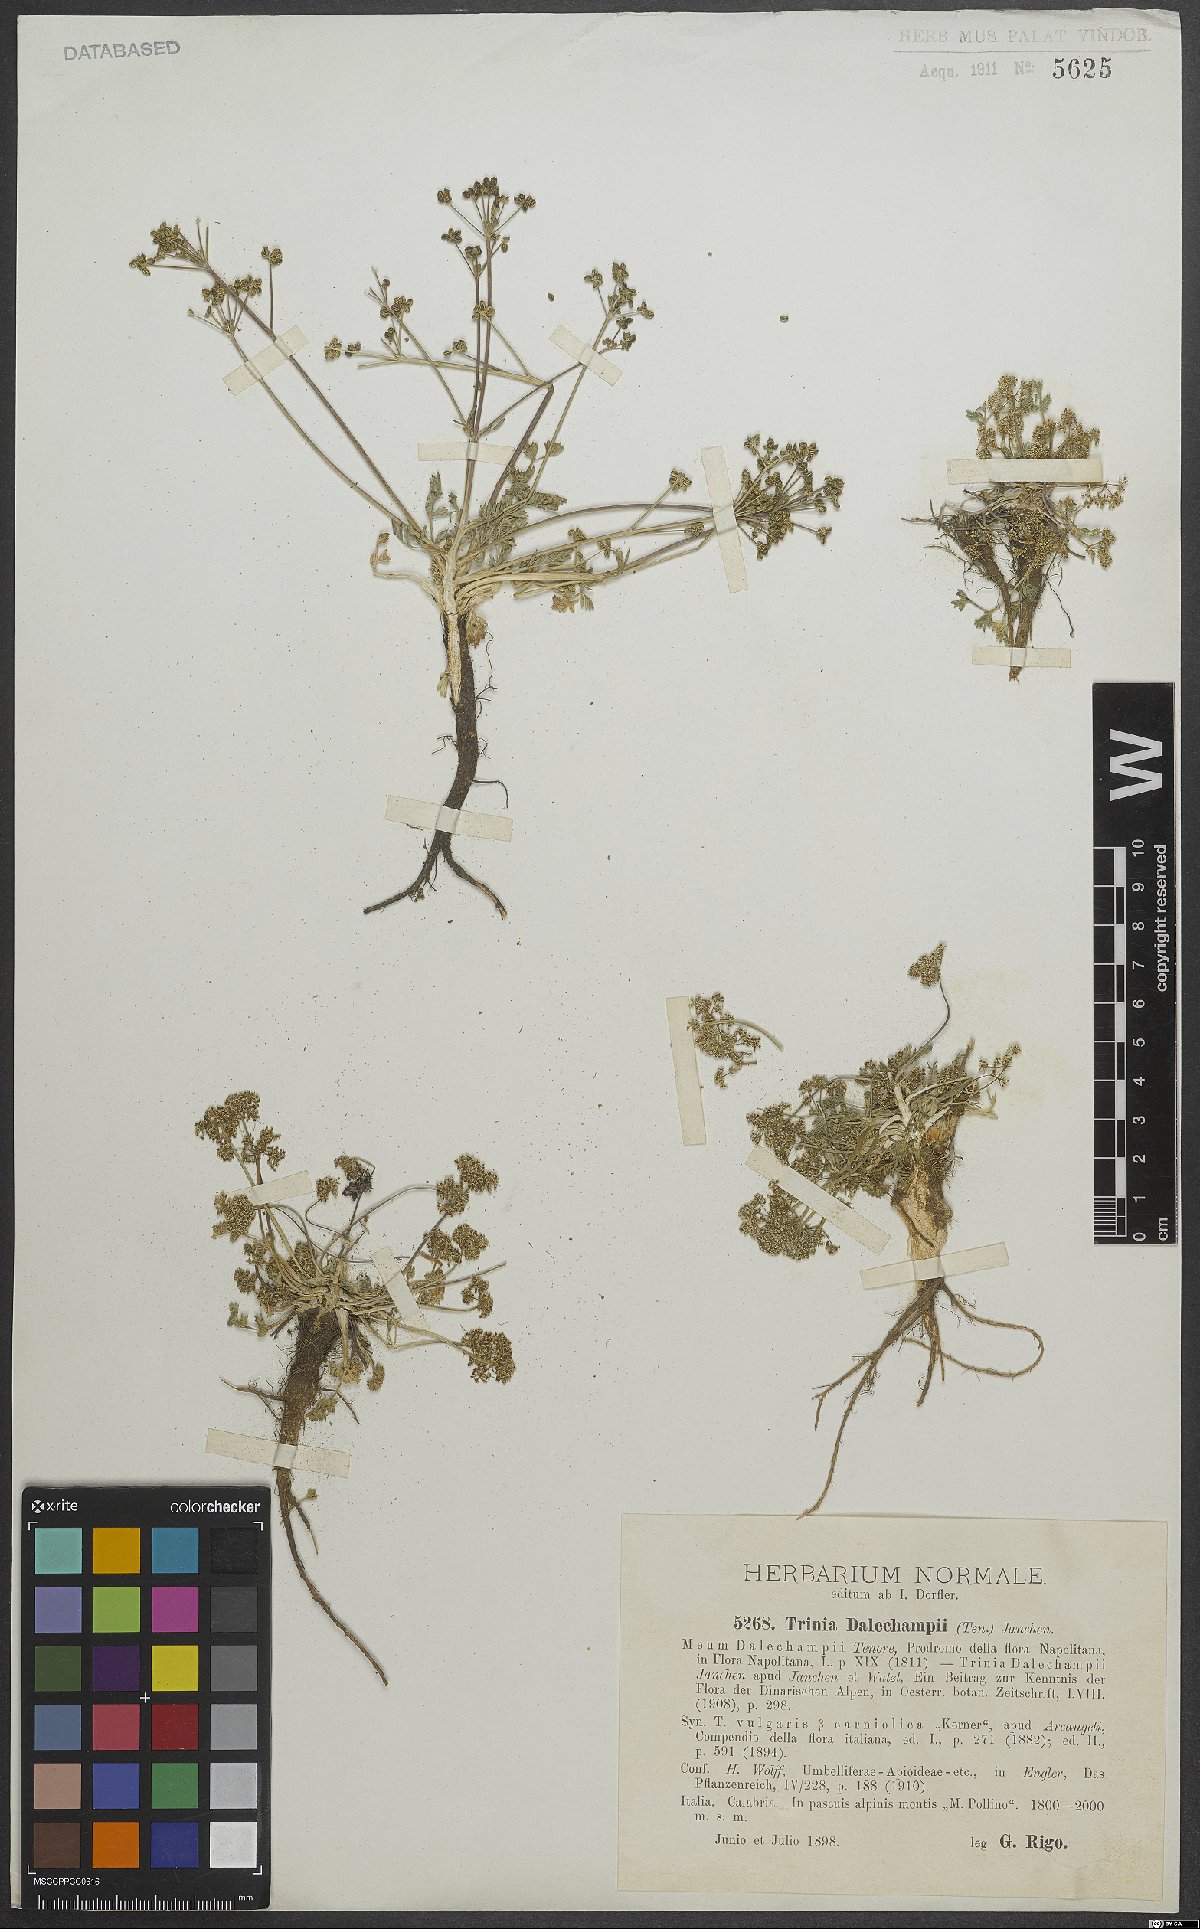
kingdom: Plantae
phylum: Tracheophyta
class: Magnoliopsida
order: Apiales
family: Apiaceae
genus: Trinia
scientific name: Trinia dalechampii
